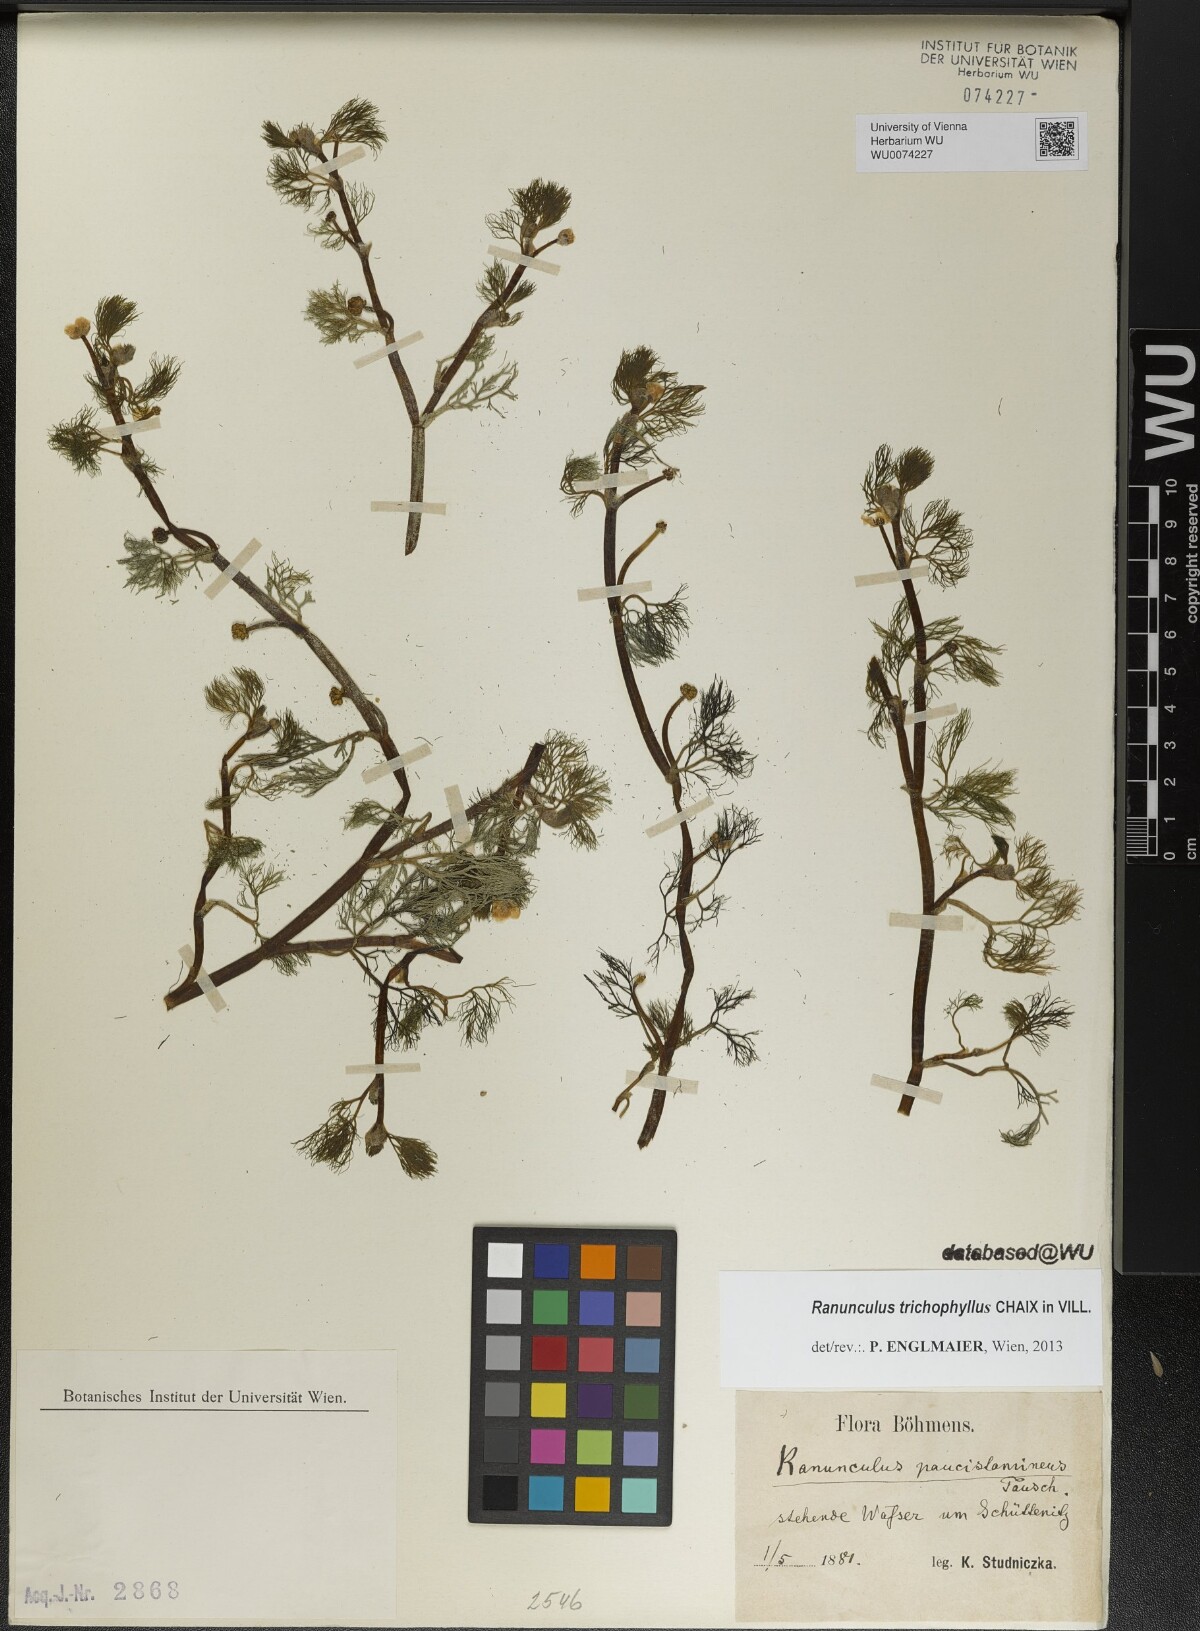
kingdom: Plantae
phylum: Tracheophyta
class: Magnoliopsida
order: Ranunculales
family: Ranunculaceae
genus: Ranunculus
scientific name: Ranunculus trichophyllus
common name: Thread-leaved water-crowfoot
